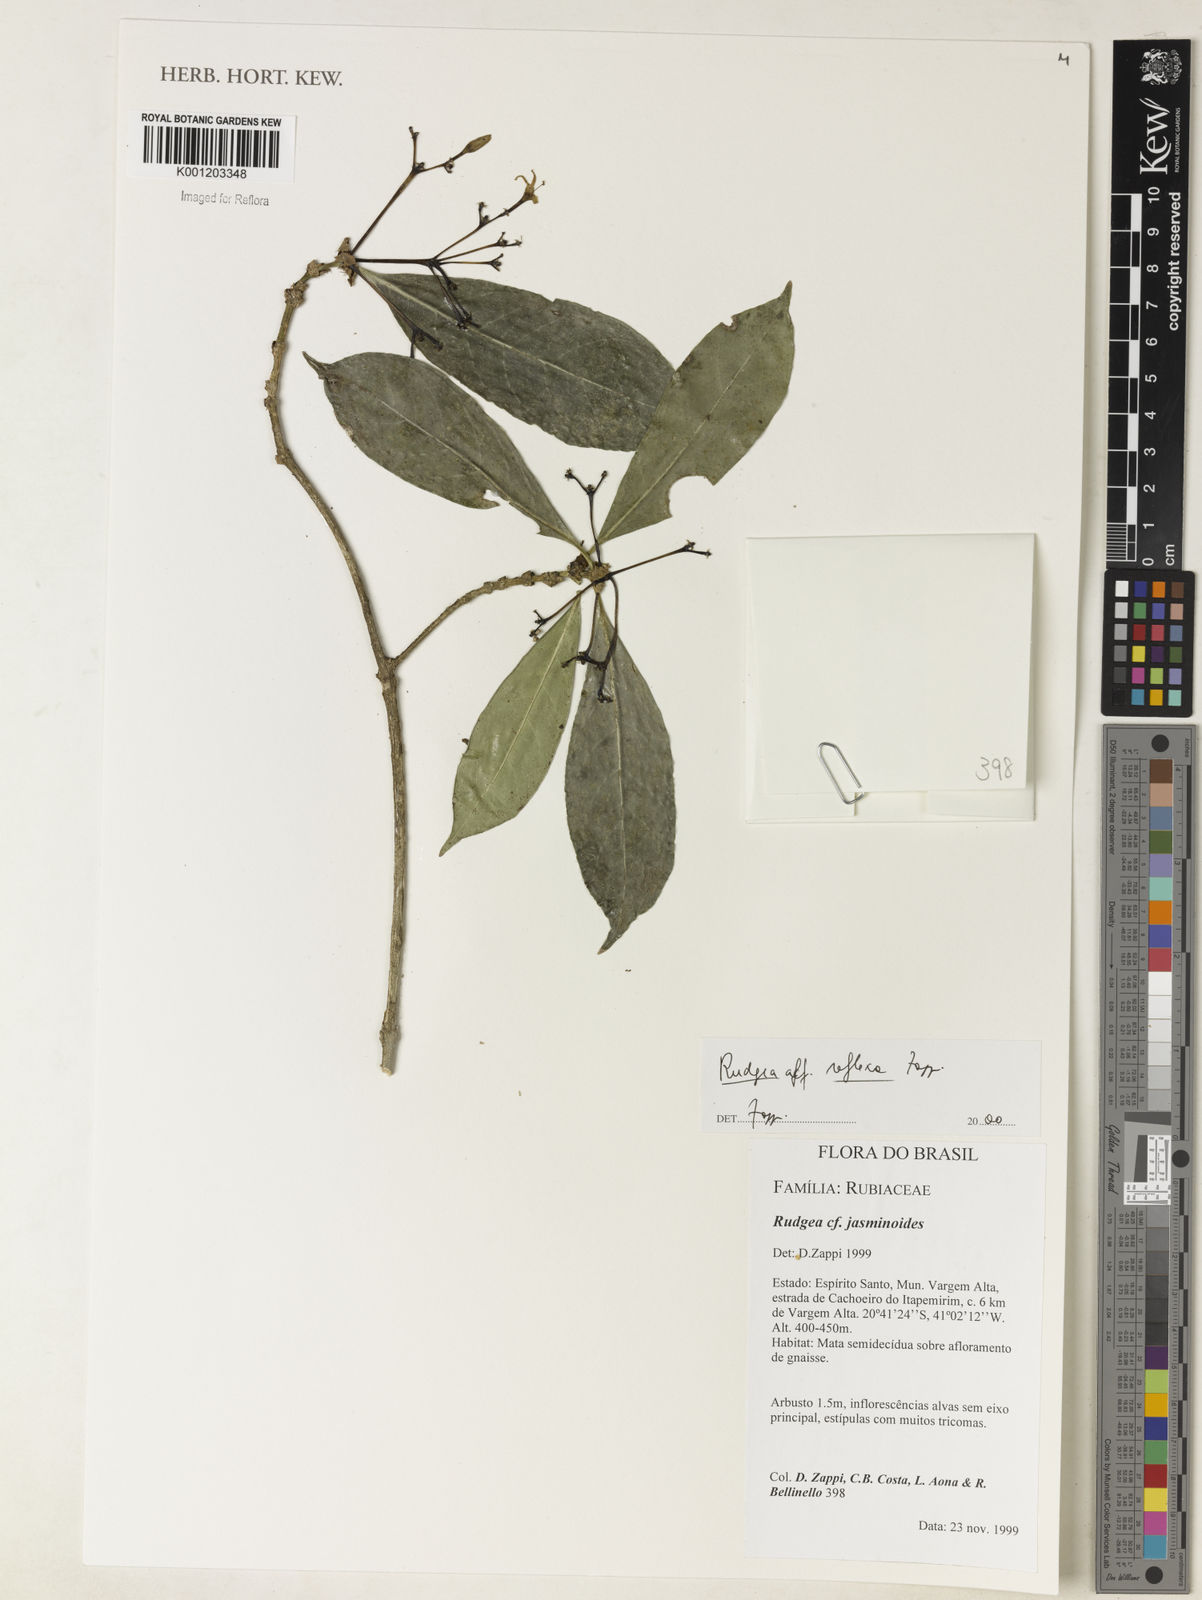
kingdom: Plantae
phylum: Tracheophyta
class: Magnoliopsida
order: Gentianales
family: Rubiaceae
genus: Rudgea
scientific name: Rudgea reflexa
